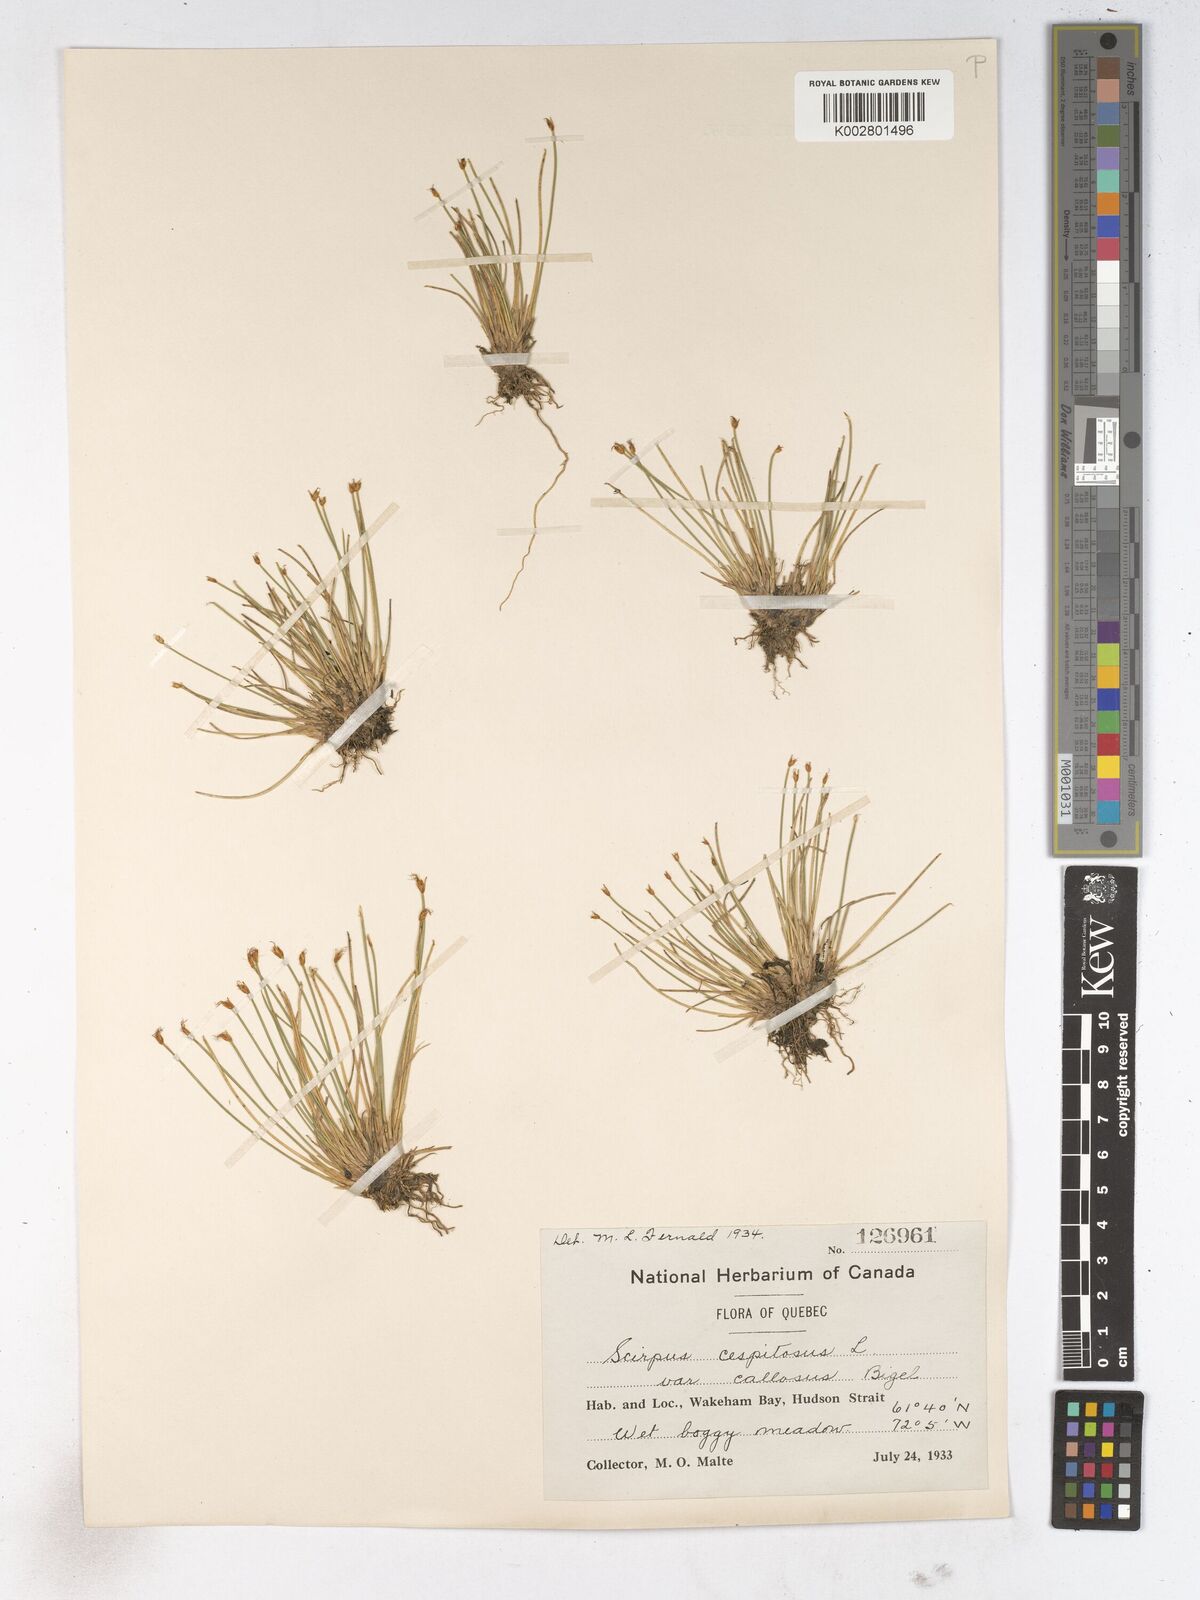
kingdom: Plantae
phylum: Tracheophyta
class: Liliopsida
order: Poales
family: Cyperaceae
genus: Trichophorum
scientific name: Trichophorum cespitosum
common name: Cespitose bulrush
